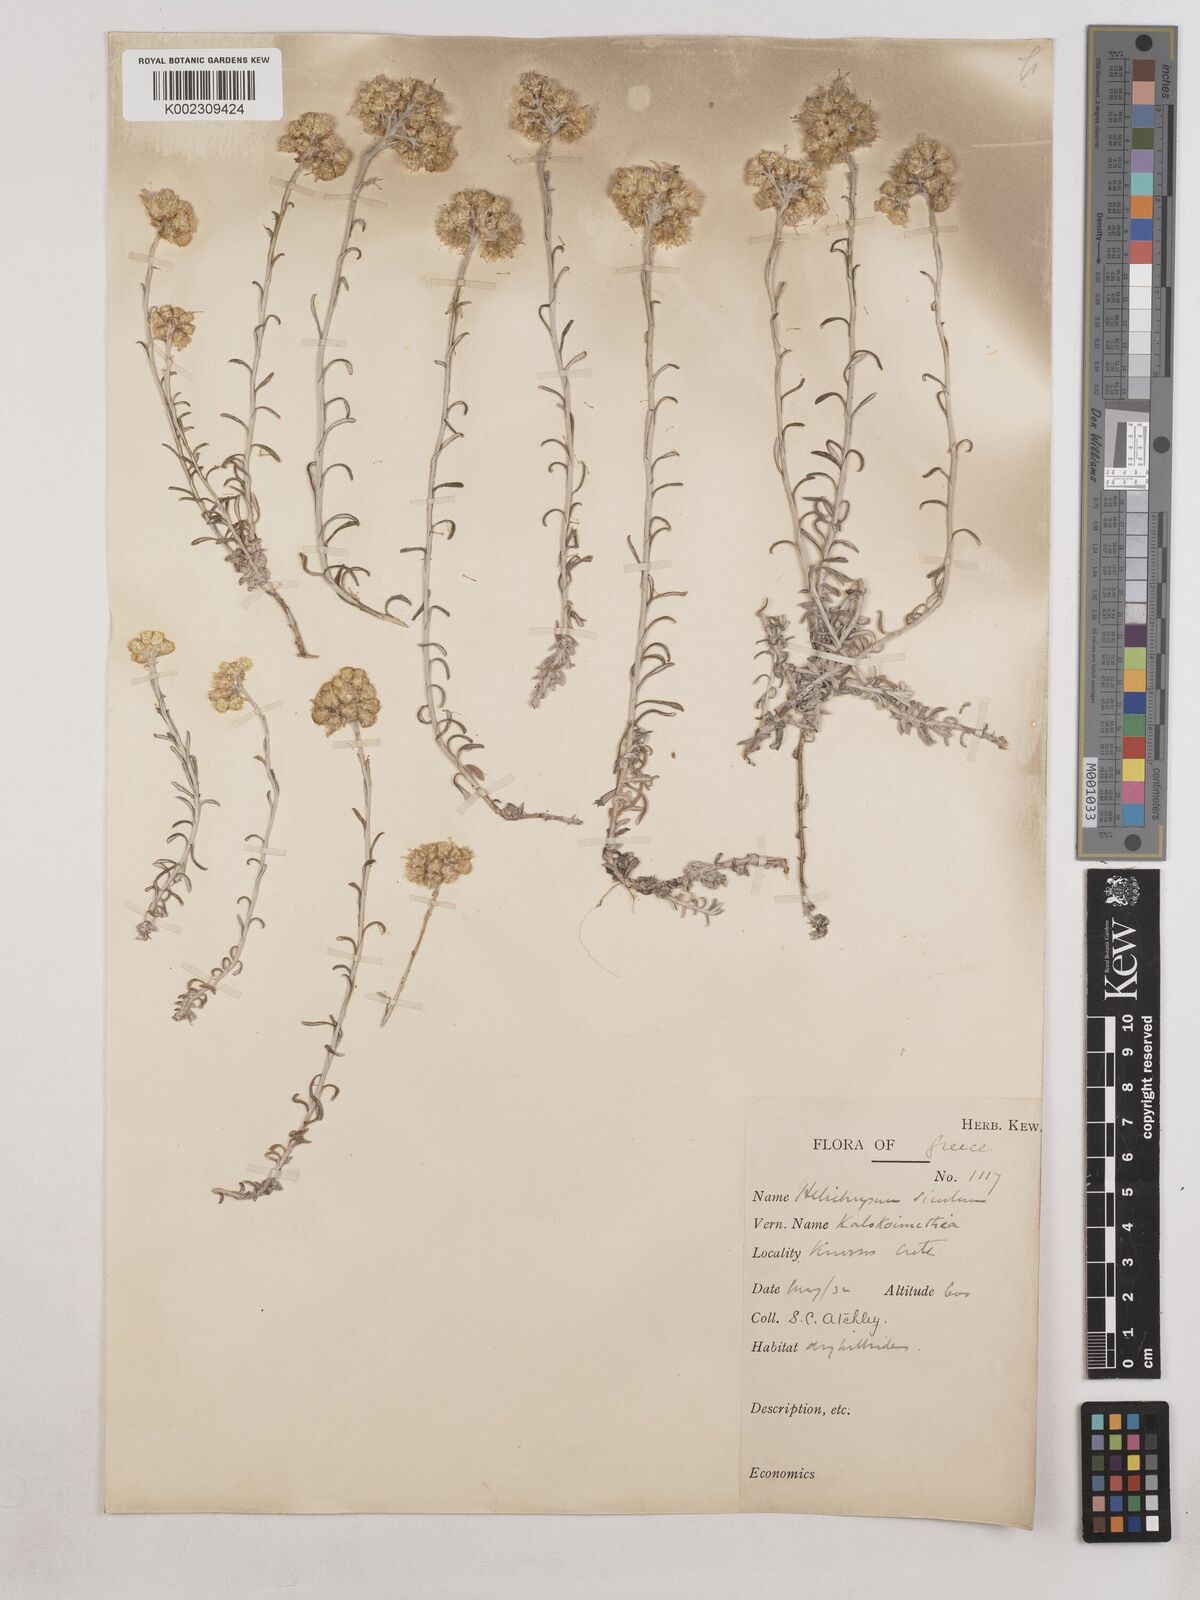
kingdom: Plantae
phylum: Tracheophyta
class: Magnoliopsida
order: Asterales
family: Asteraceae
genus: Helichrysum
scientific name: Helichrysum stoechas
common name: Goldilocks
